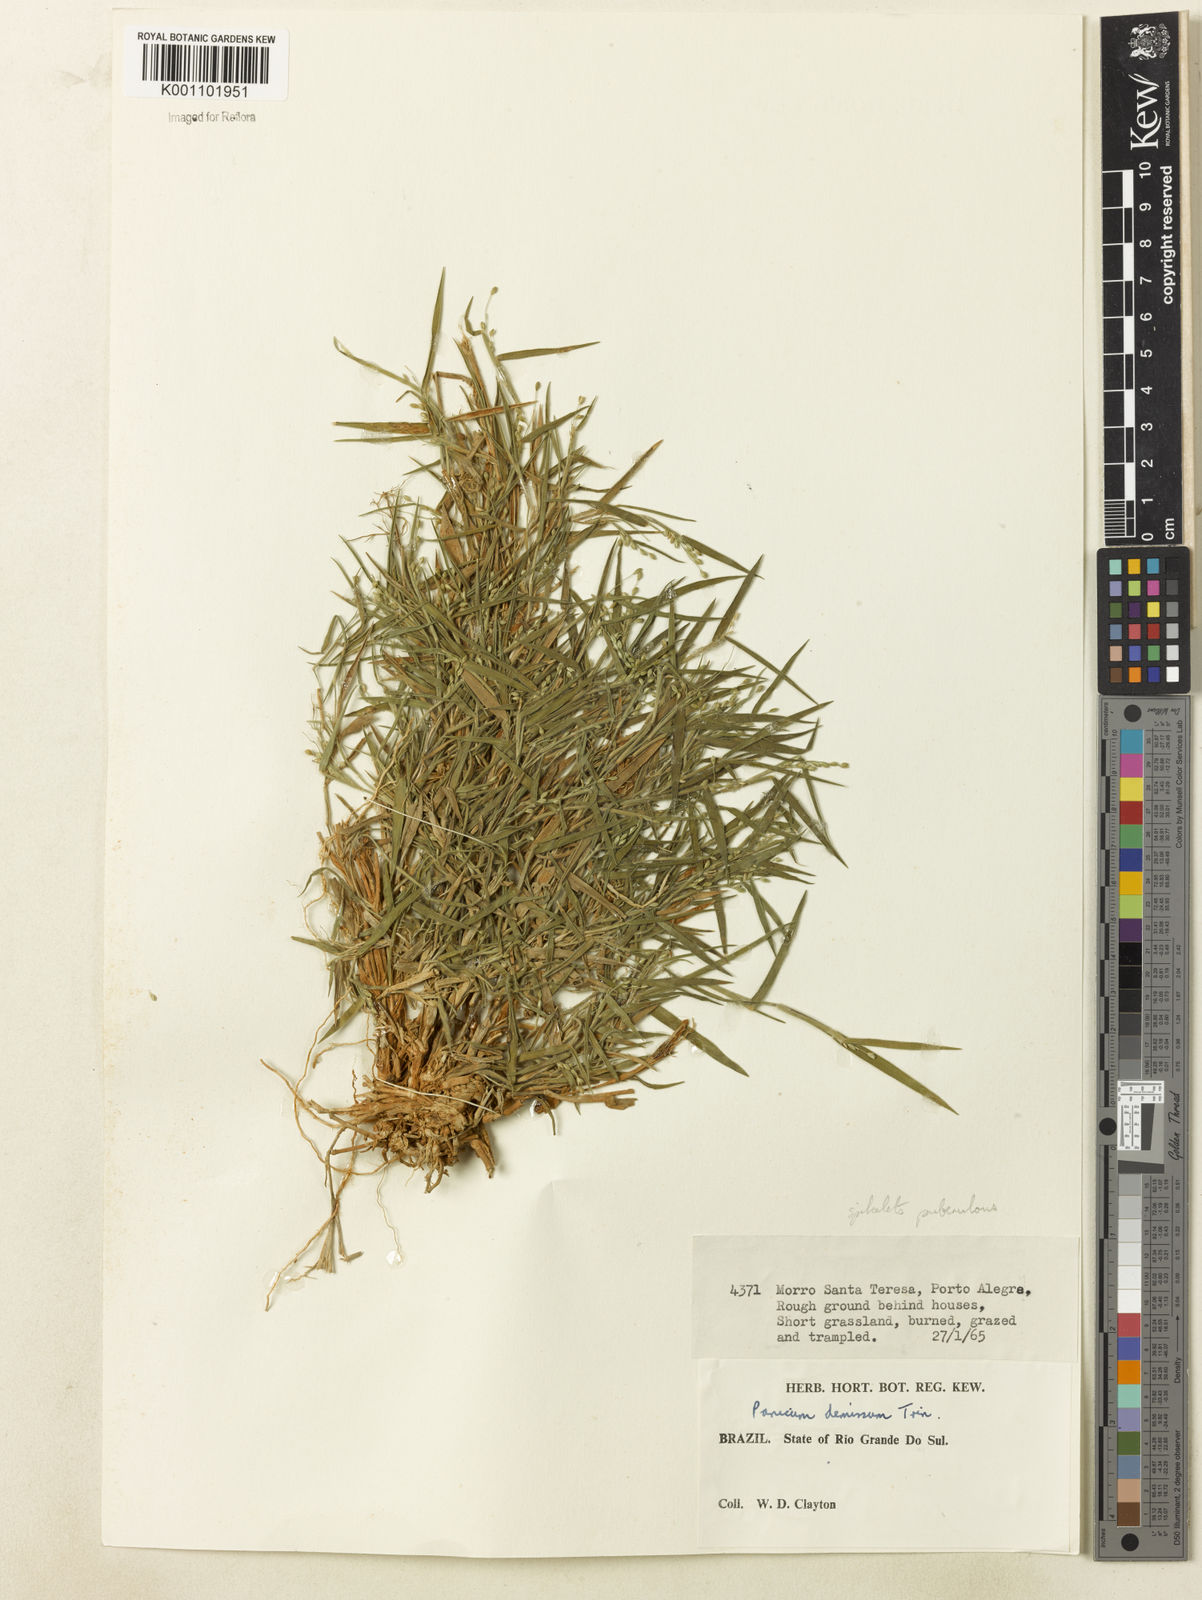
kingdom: Plantae
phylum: Tracheophyta
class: Liliopsida
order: Poales
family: Poaceae
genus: Dichanthelium
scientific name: Dichanthelium sabulorum
